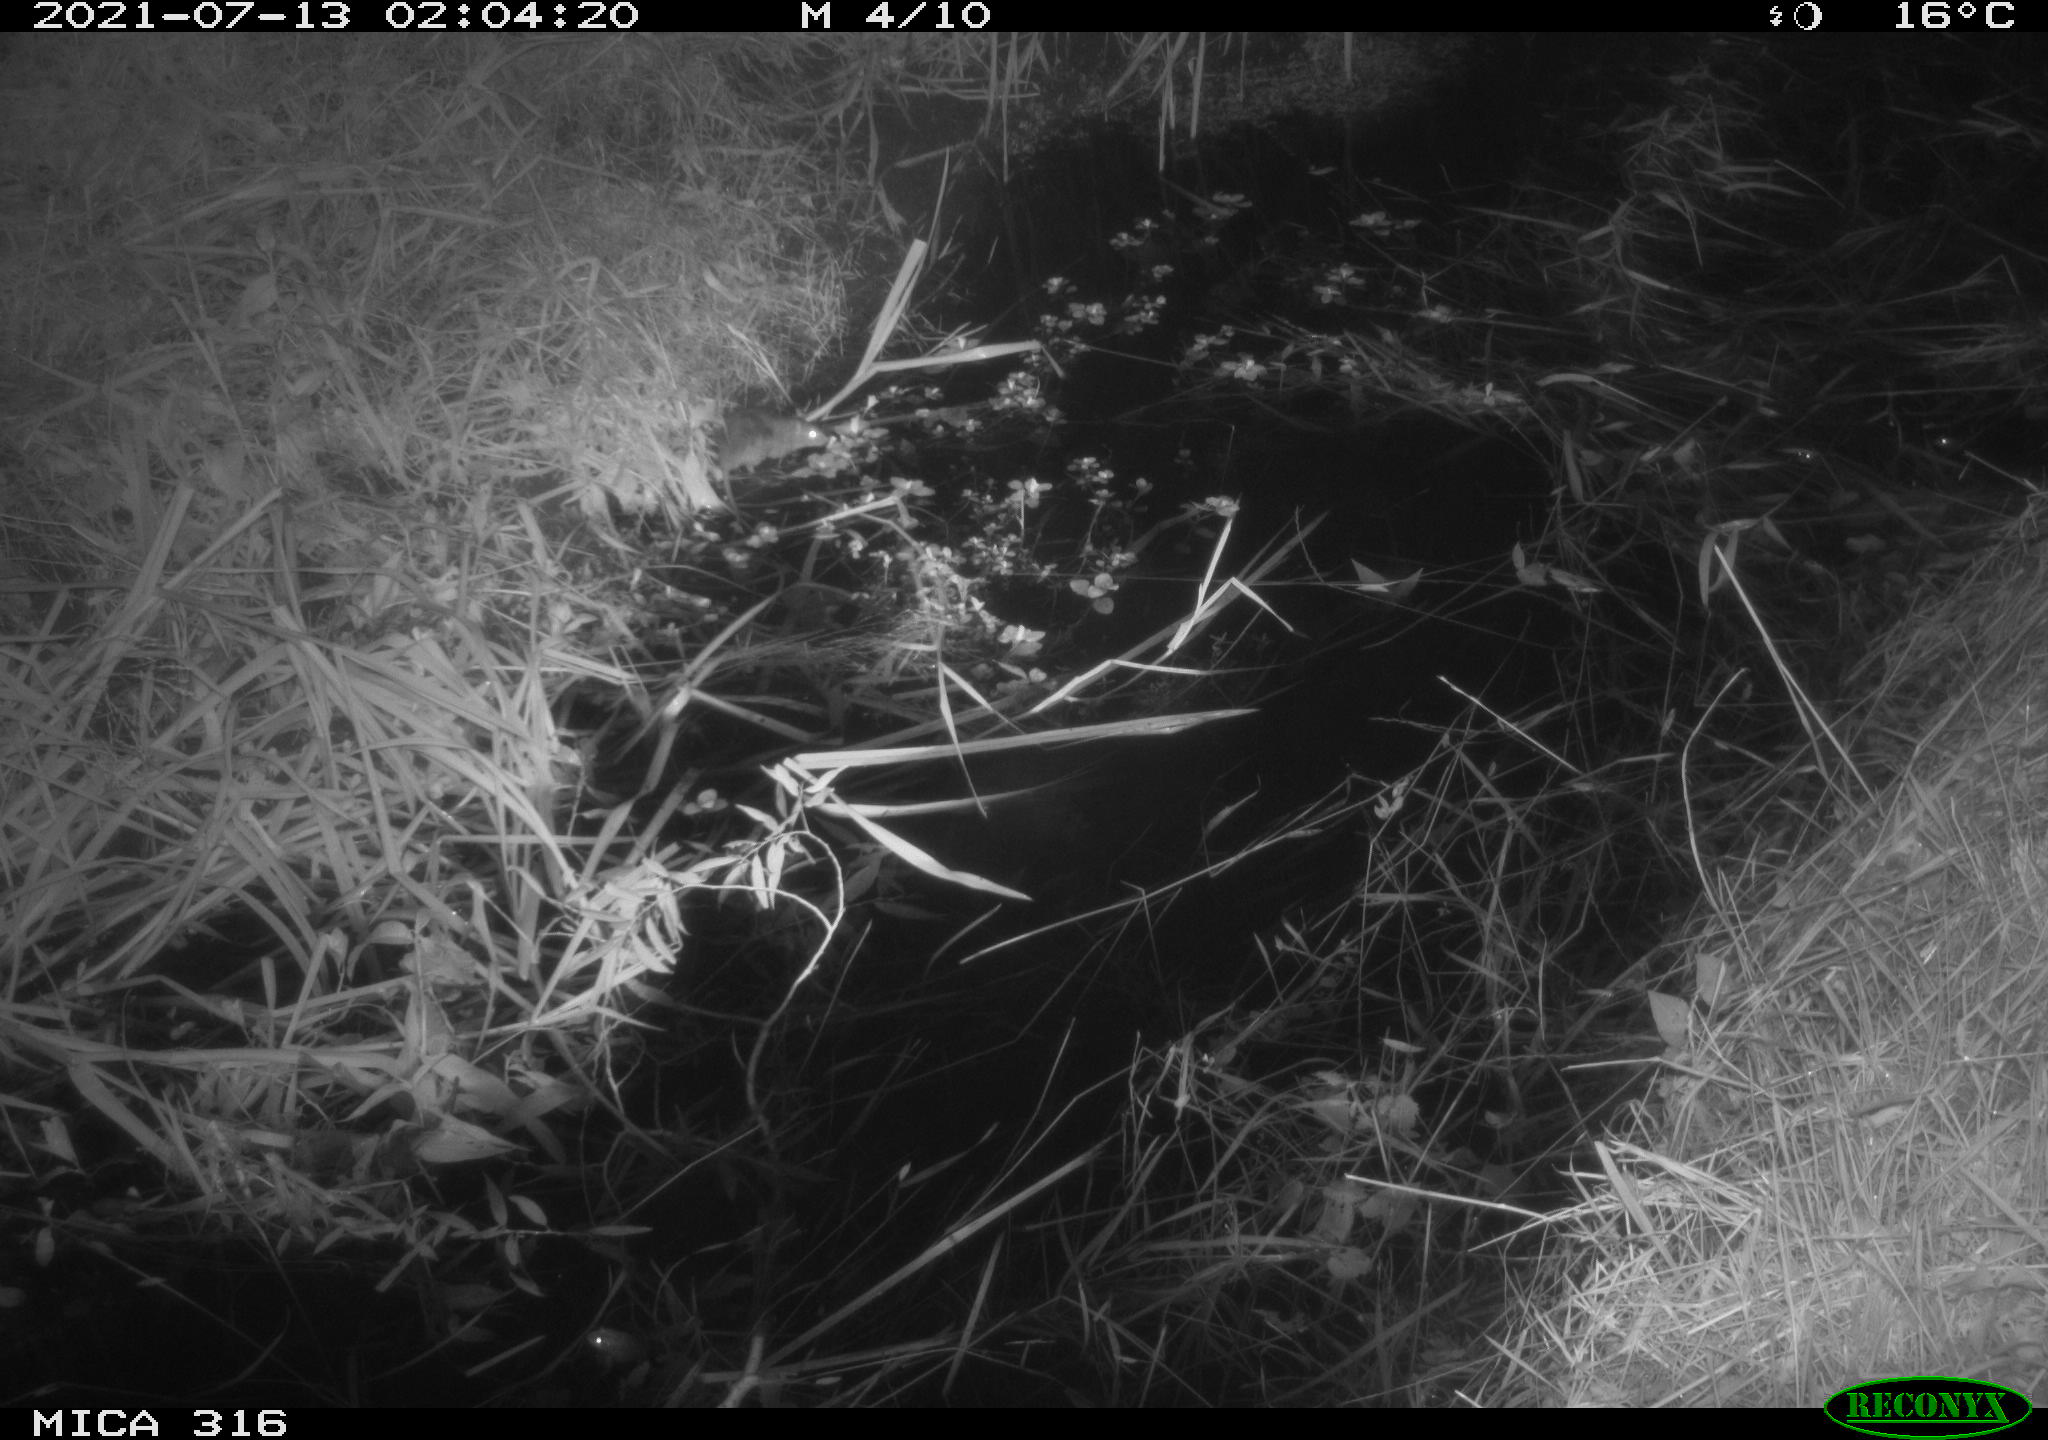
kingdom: Animalia
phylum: Chordata
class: Mammalia
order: Rodentia
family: Muridae
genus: Rattus
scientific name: Rattus norvegicus
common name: Brown rat
